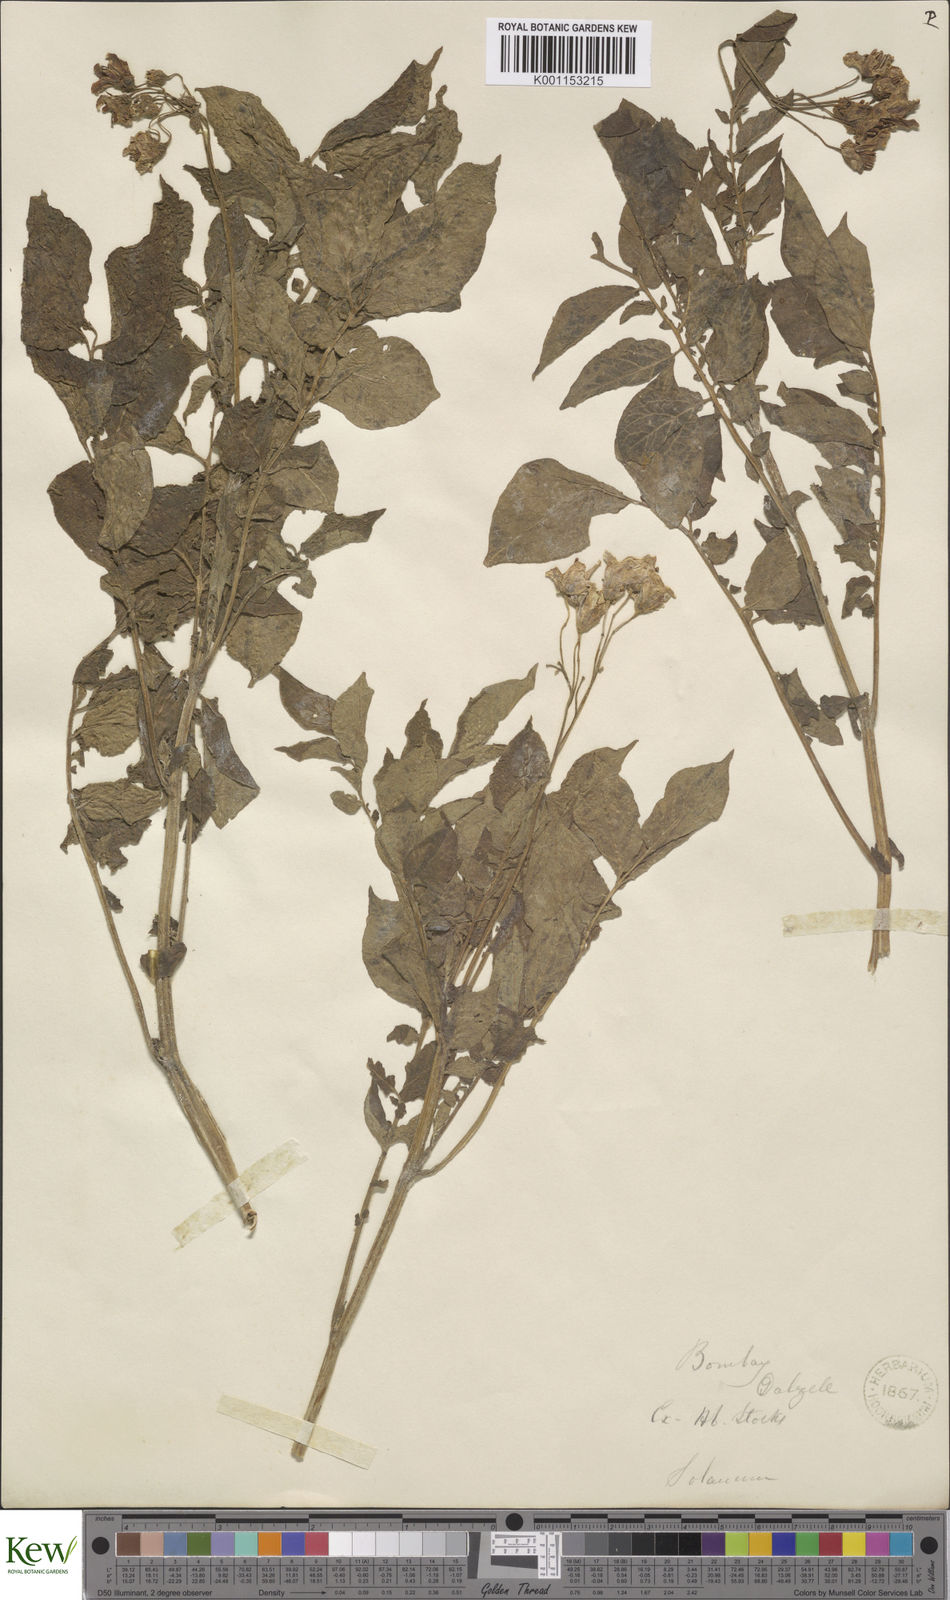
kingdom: Plantae
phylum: Tracheophyta
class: Magnoliopsida
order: Solanales
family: Solanaceae
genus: Solanum
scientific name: Solanum tuberosum
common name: Potato
